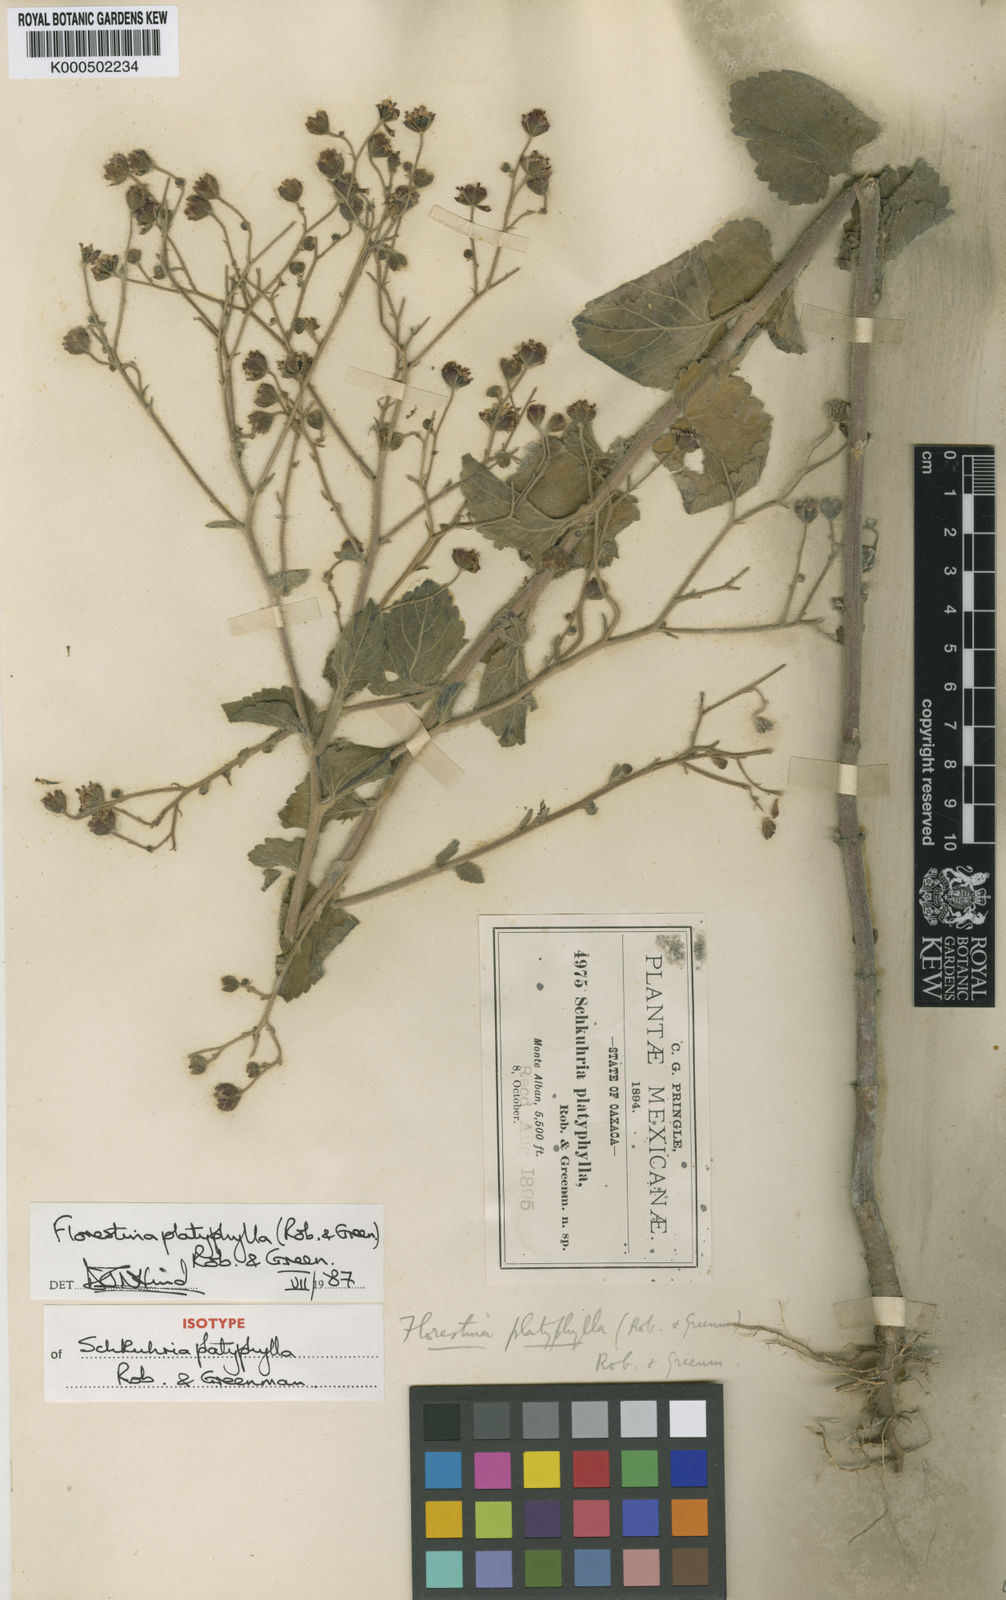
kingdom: Plantae
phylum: Tracheophyta
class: Magnoliopsida
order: Asterales
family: Asteraceae
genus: Florestina
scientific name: Florestina platyphylla
